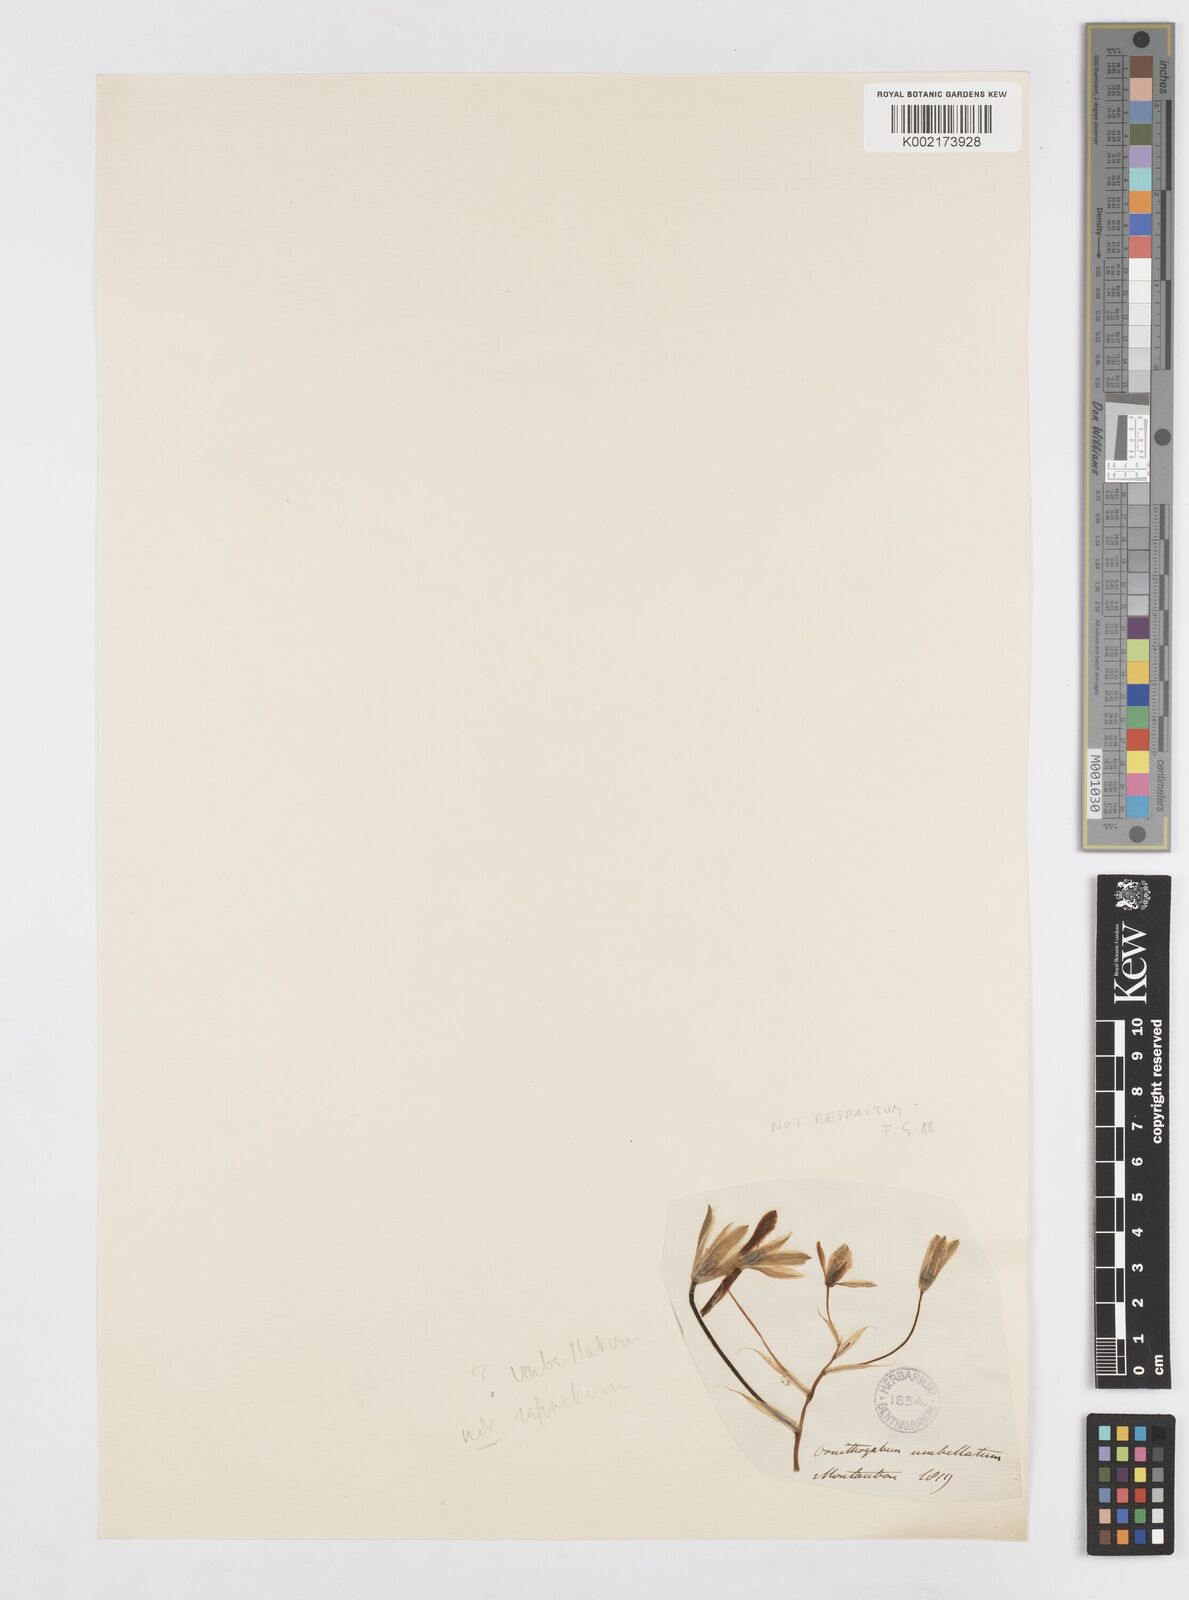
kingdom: Plantae
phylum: Tracheophyta
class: Liliopsida
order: Asparagales
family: Asparagaceae
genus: Ornithogalum
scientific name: Ornithogalum refractum
